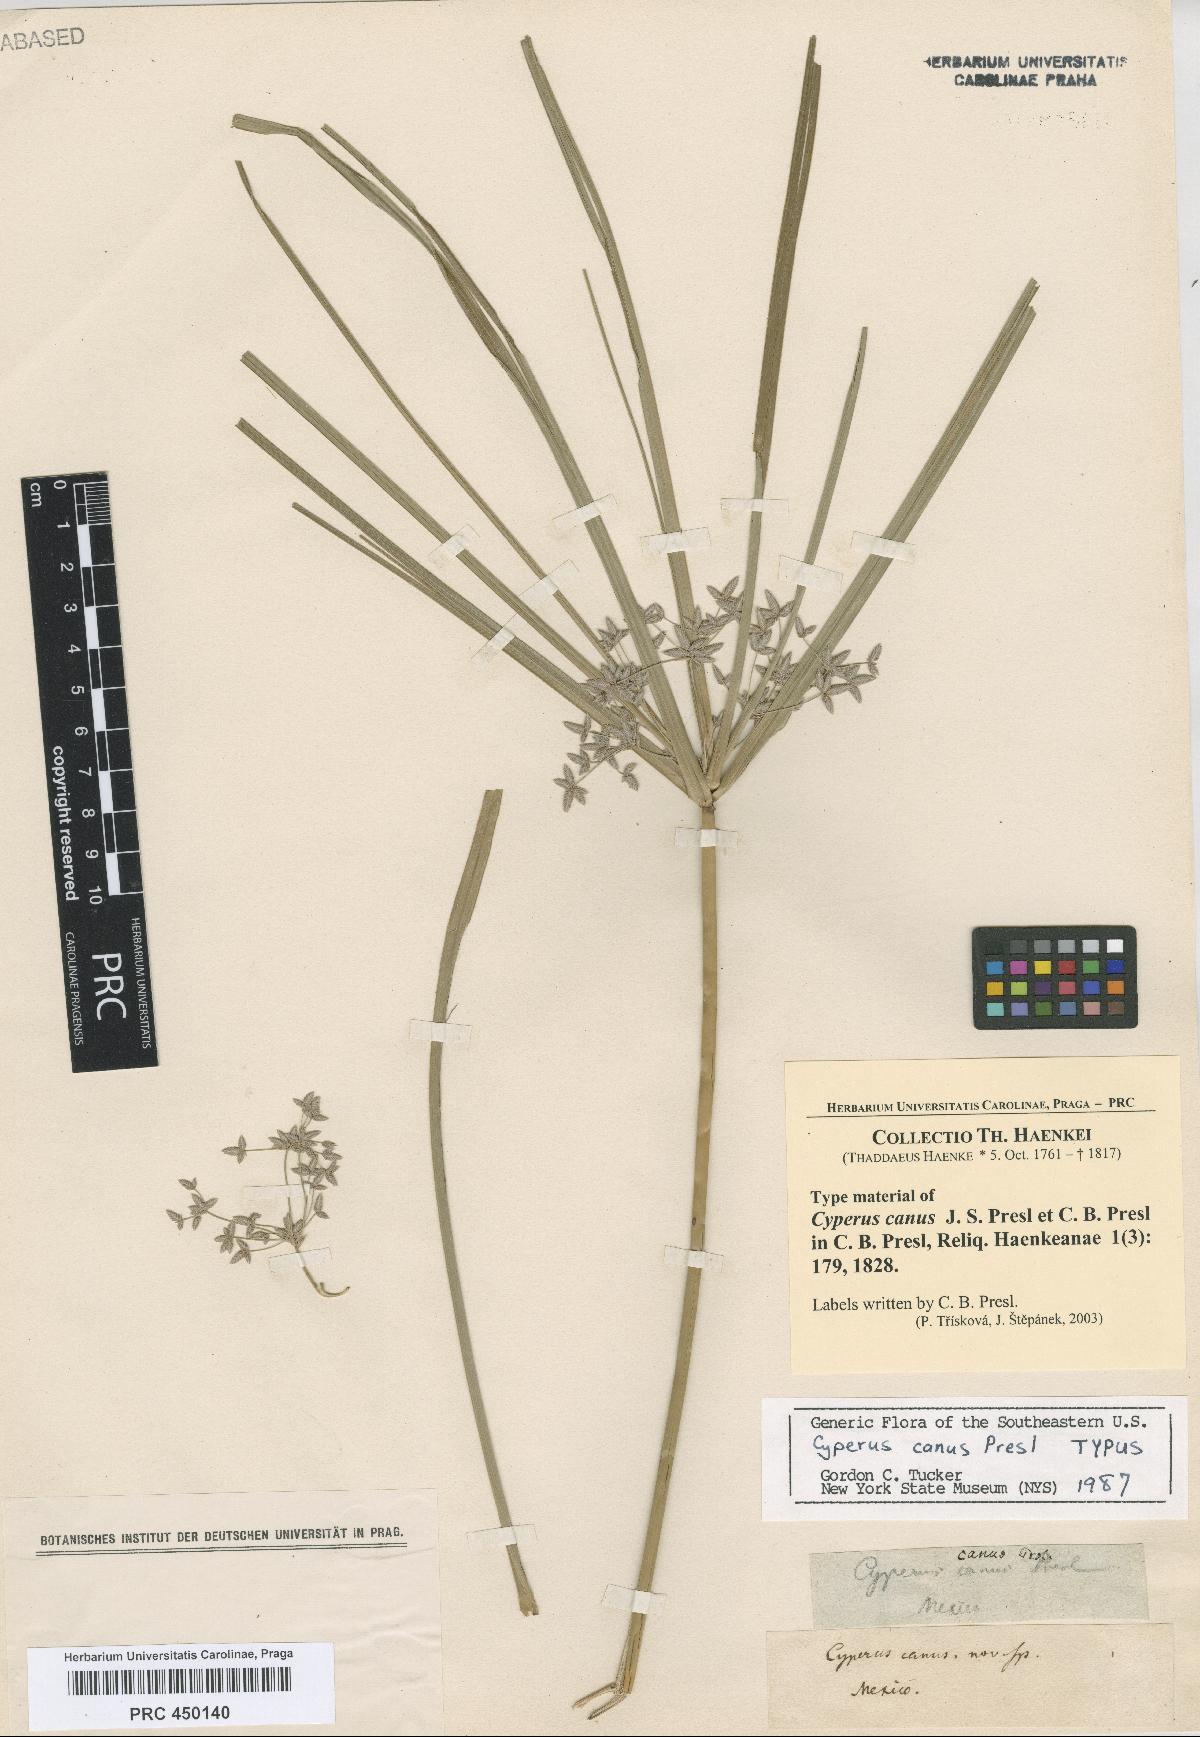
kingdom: Plantae
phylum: Tracheophyta
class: Liliopsida
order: Poales
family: Cyperaceae
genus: Cyperus
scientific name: Cyperus canus
